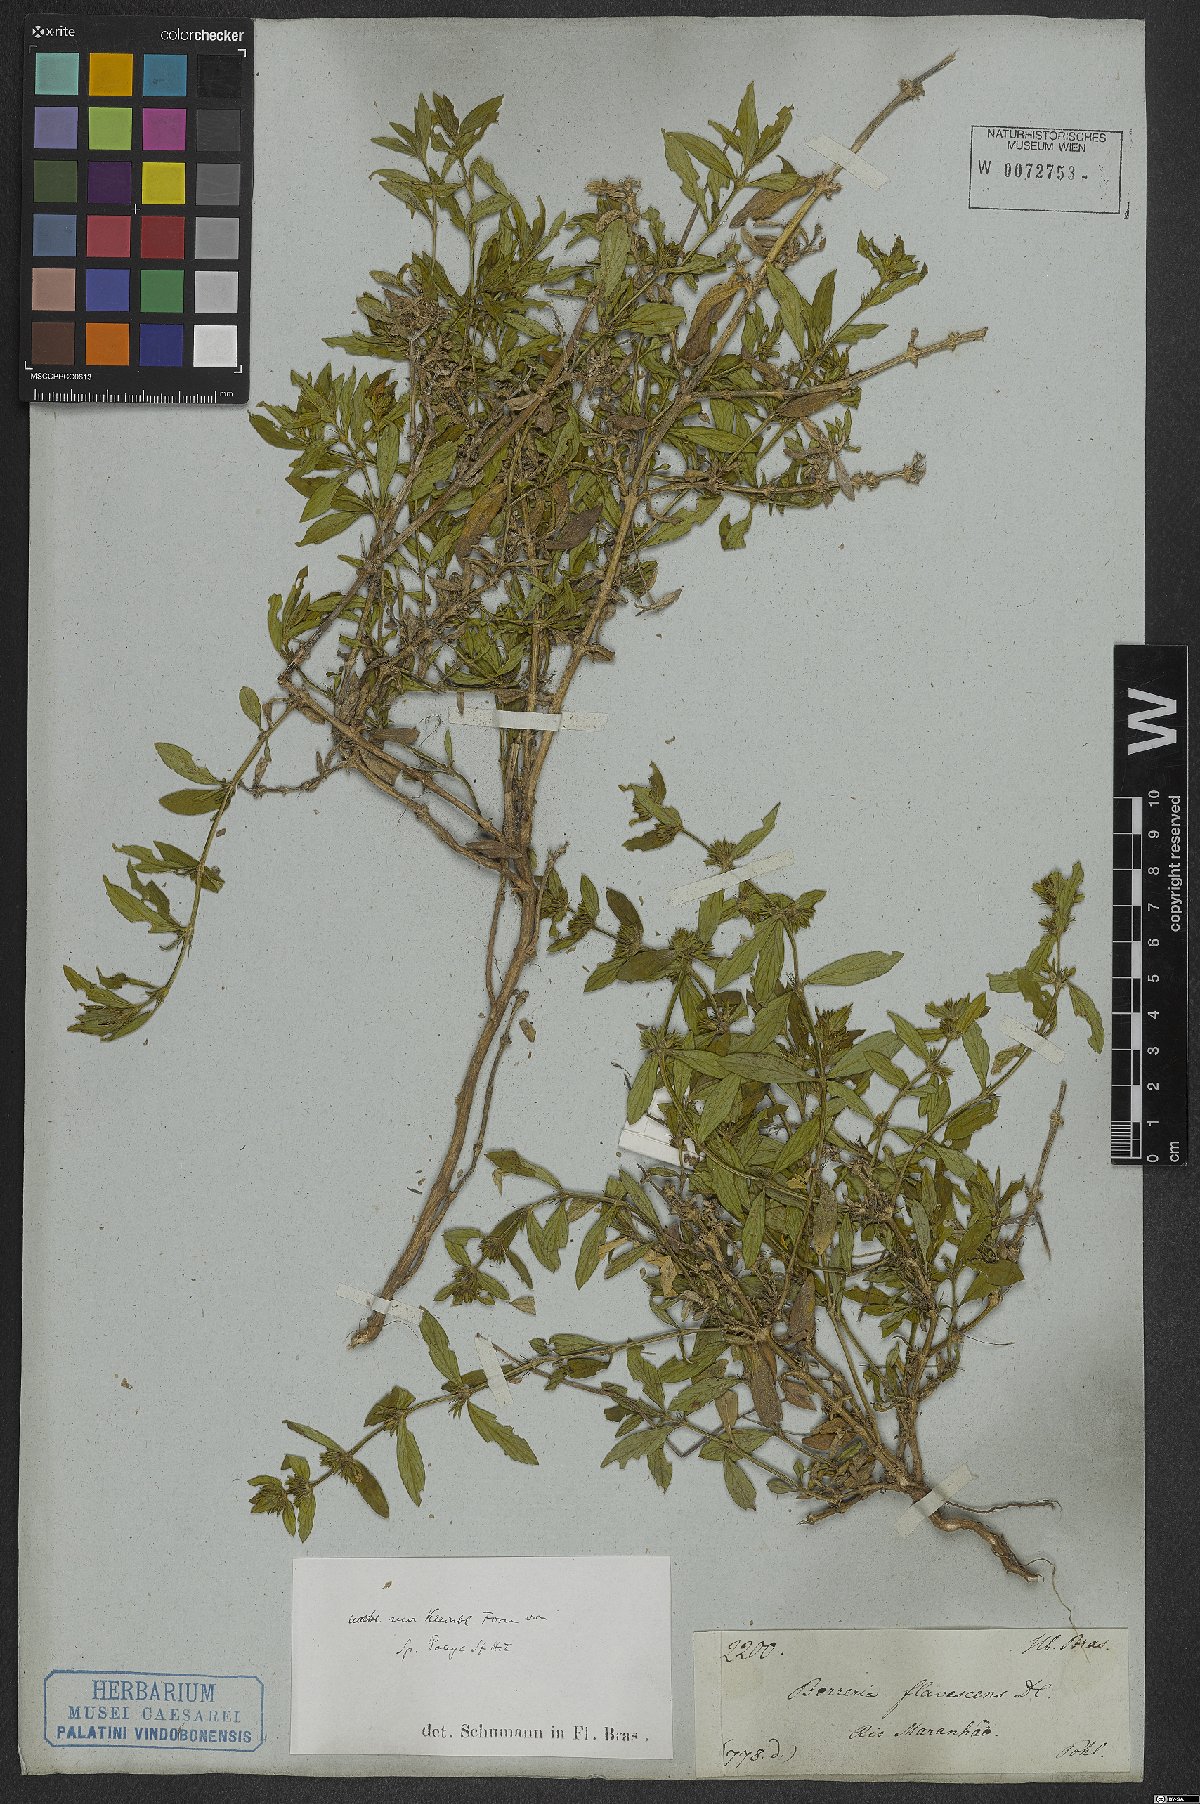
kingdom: Plantae
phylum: Tracheophyta
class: Magnoliopsida
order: Gentianales
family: Rubiaceae
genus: Spermacoce
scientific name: Spermacoce poaya
